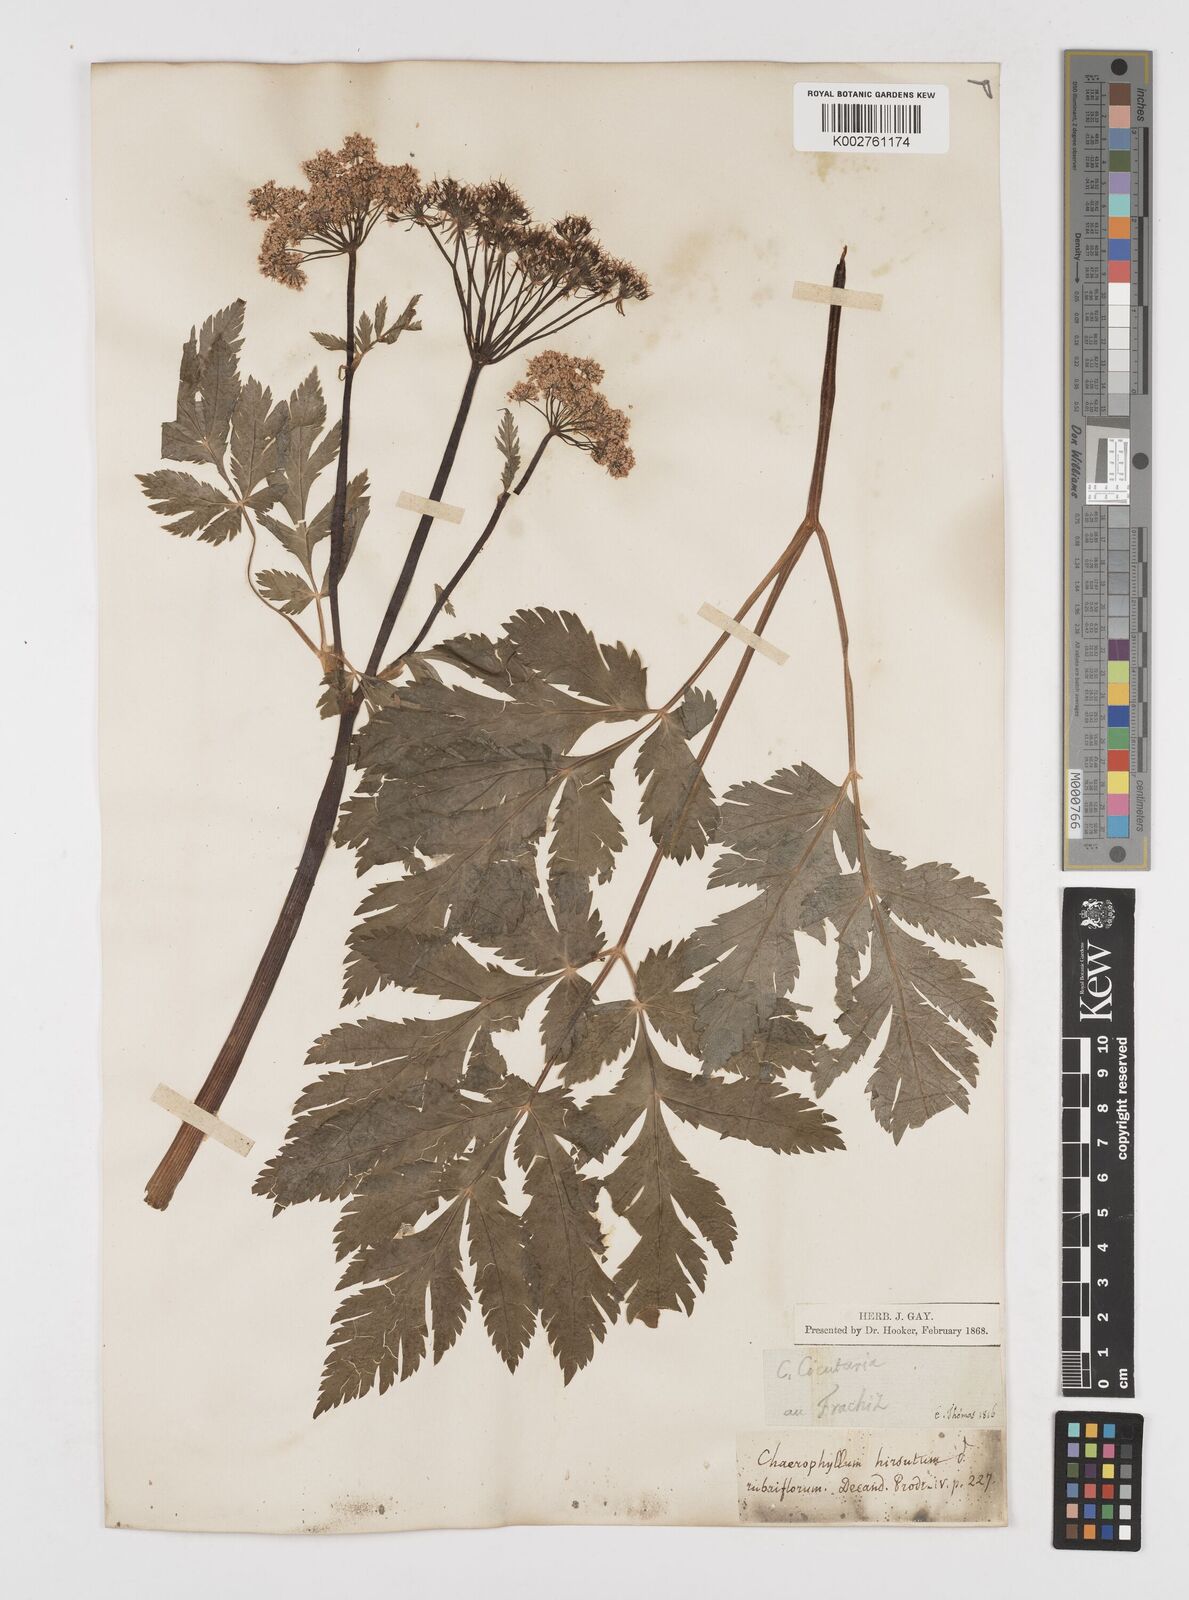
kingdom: Plantae
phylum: Tracheophyta
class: Magnoliopsida
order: Apiales
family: Apiaceae
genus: Chaerophyllum
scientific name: Chaerophyllum hirsutum
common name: Hairy chervil
